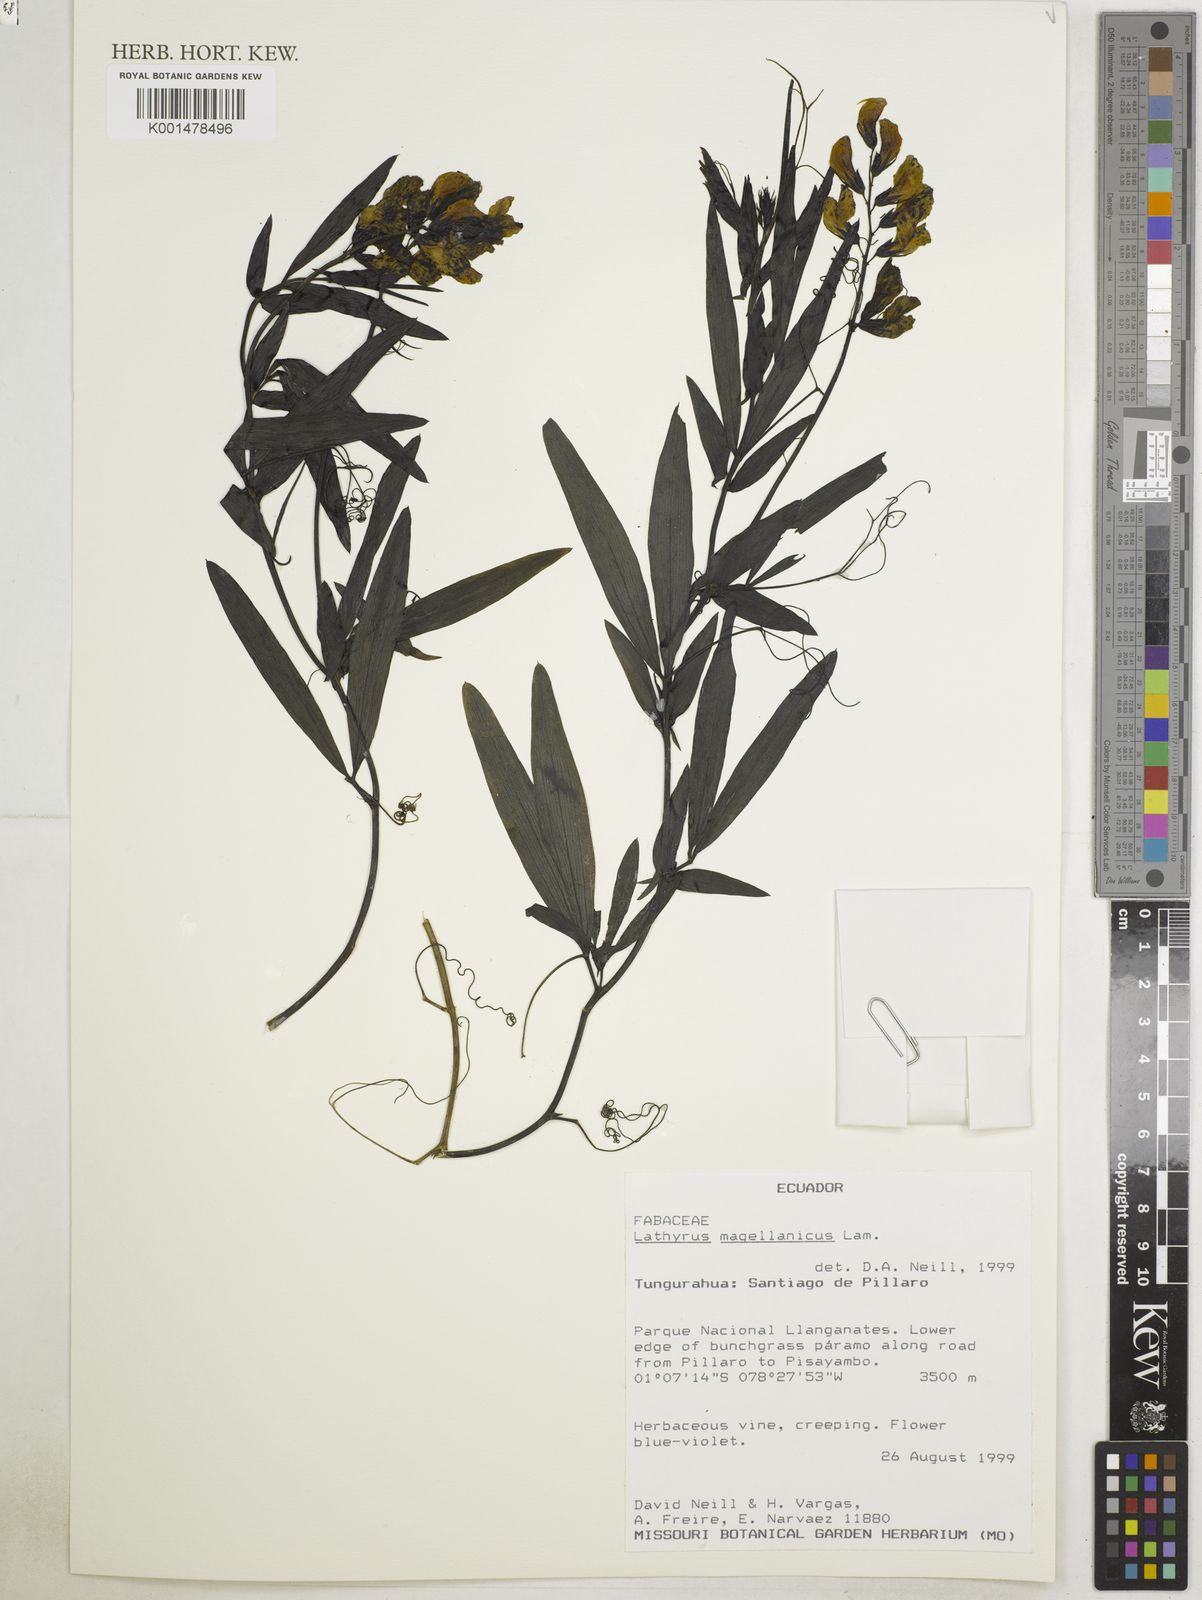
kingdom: Plantae
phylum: Tracheophyta
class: Magnoliopsida
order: Fabales
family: Fabaceae
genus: Lathyrus
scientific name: Lathyrus magellanicus
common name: Lord anson's pea
